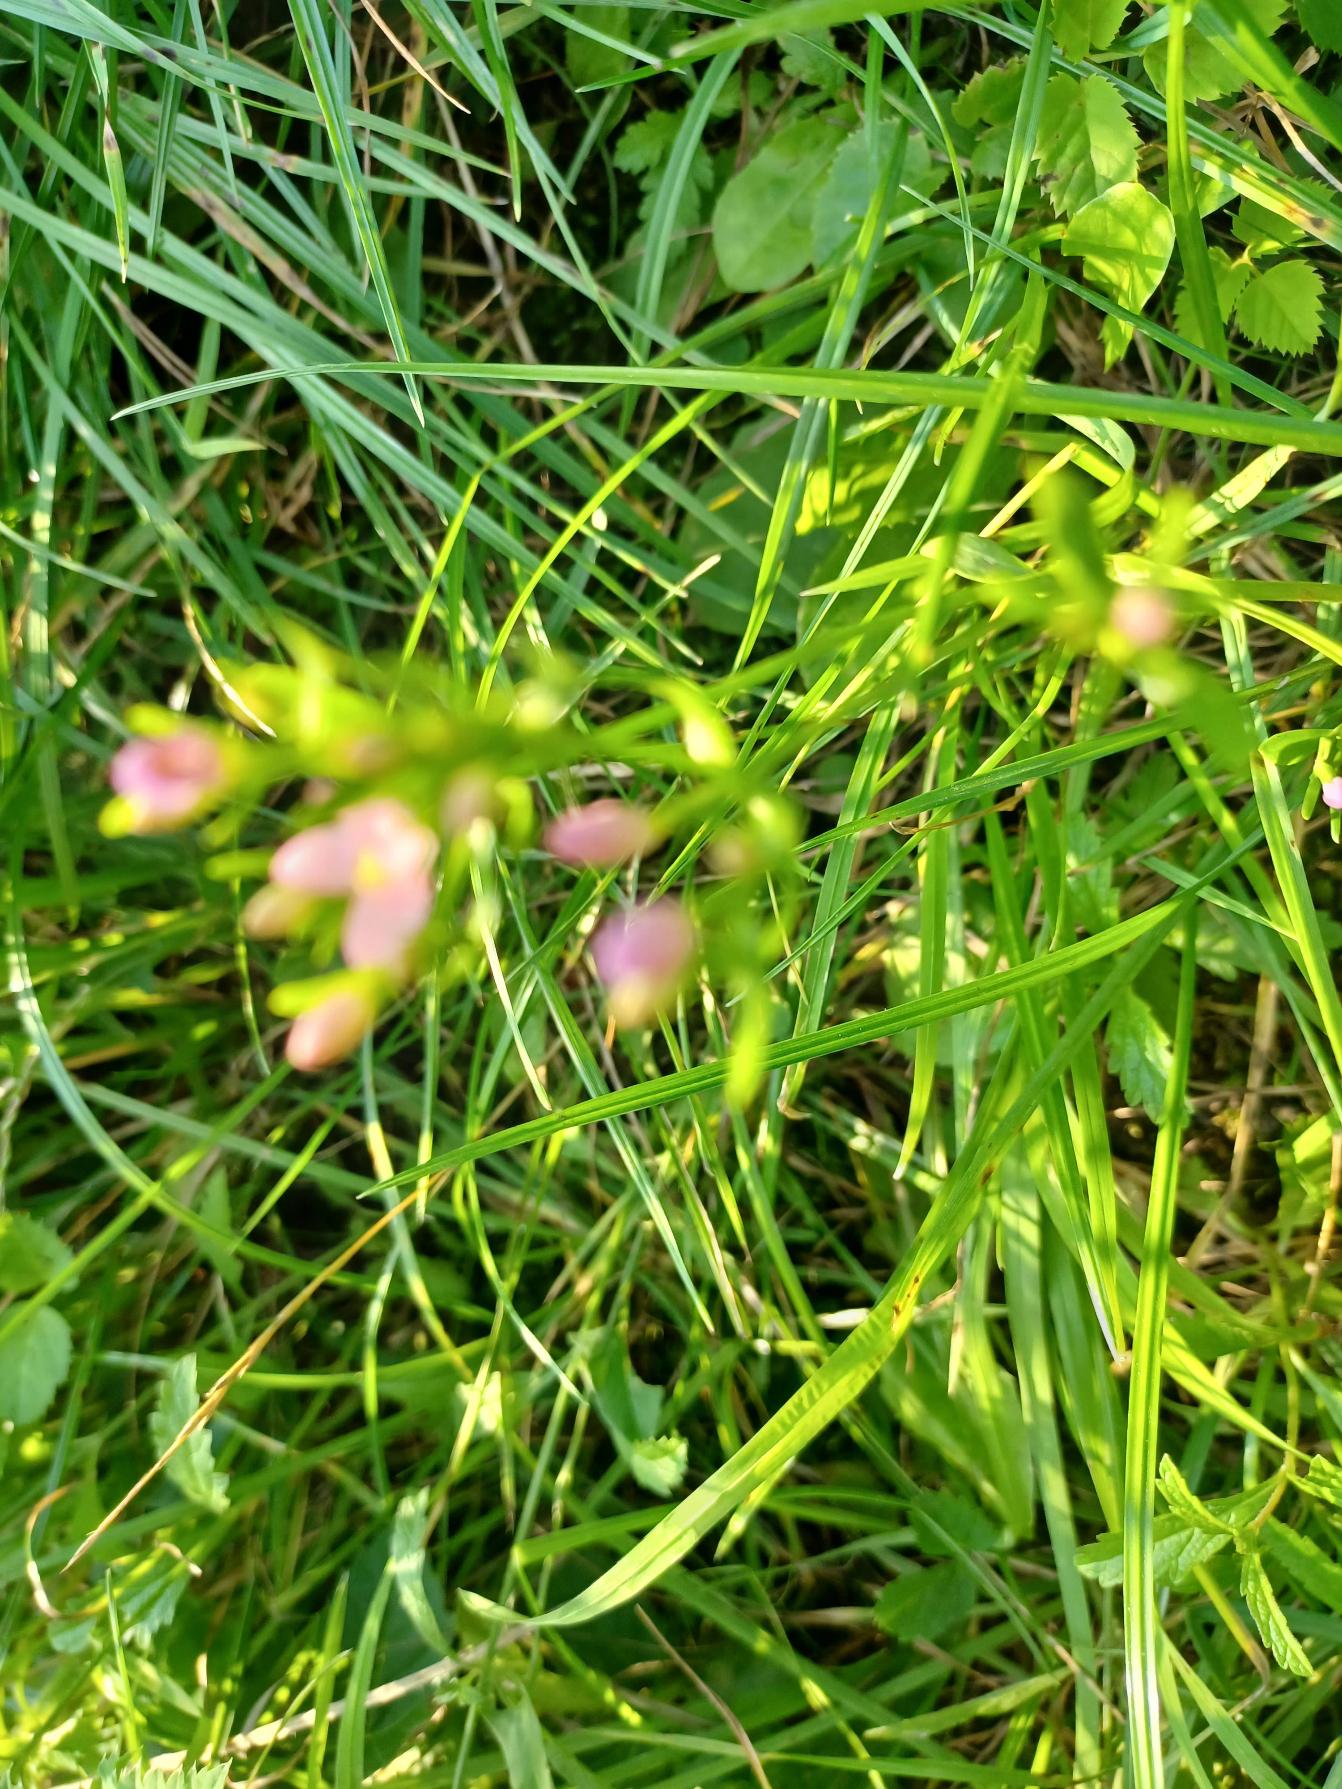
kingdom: Plantae
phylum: Tracheophyta
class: Magnoliopsida
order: Gentianales
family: Gentianaceae
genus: Centaurium
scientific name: Centaurium erythraea
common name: Mark-tusindgylden
